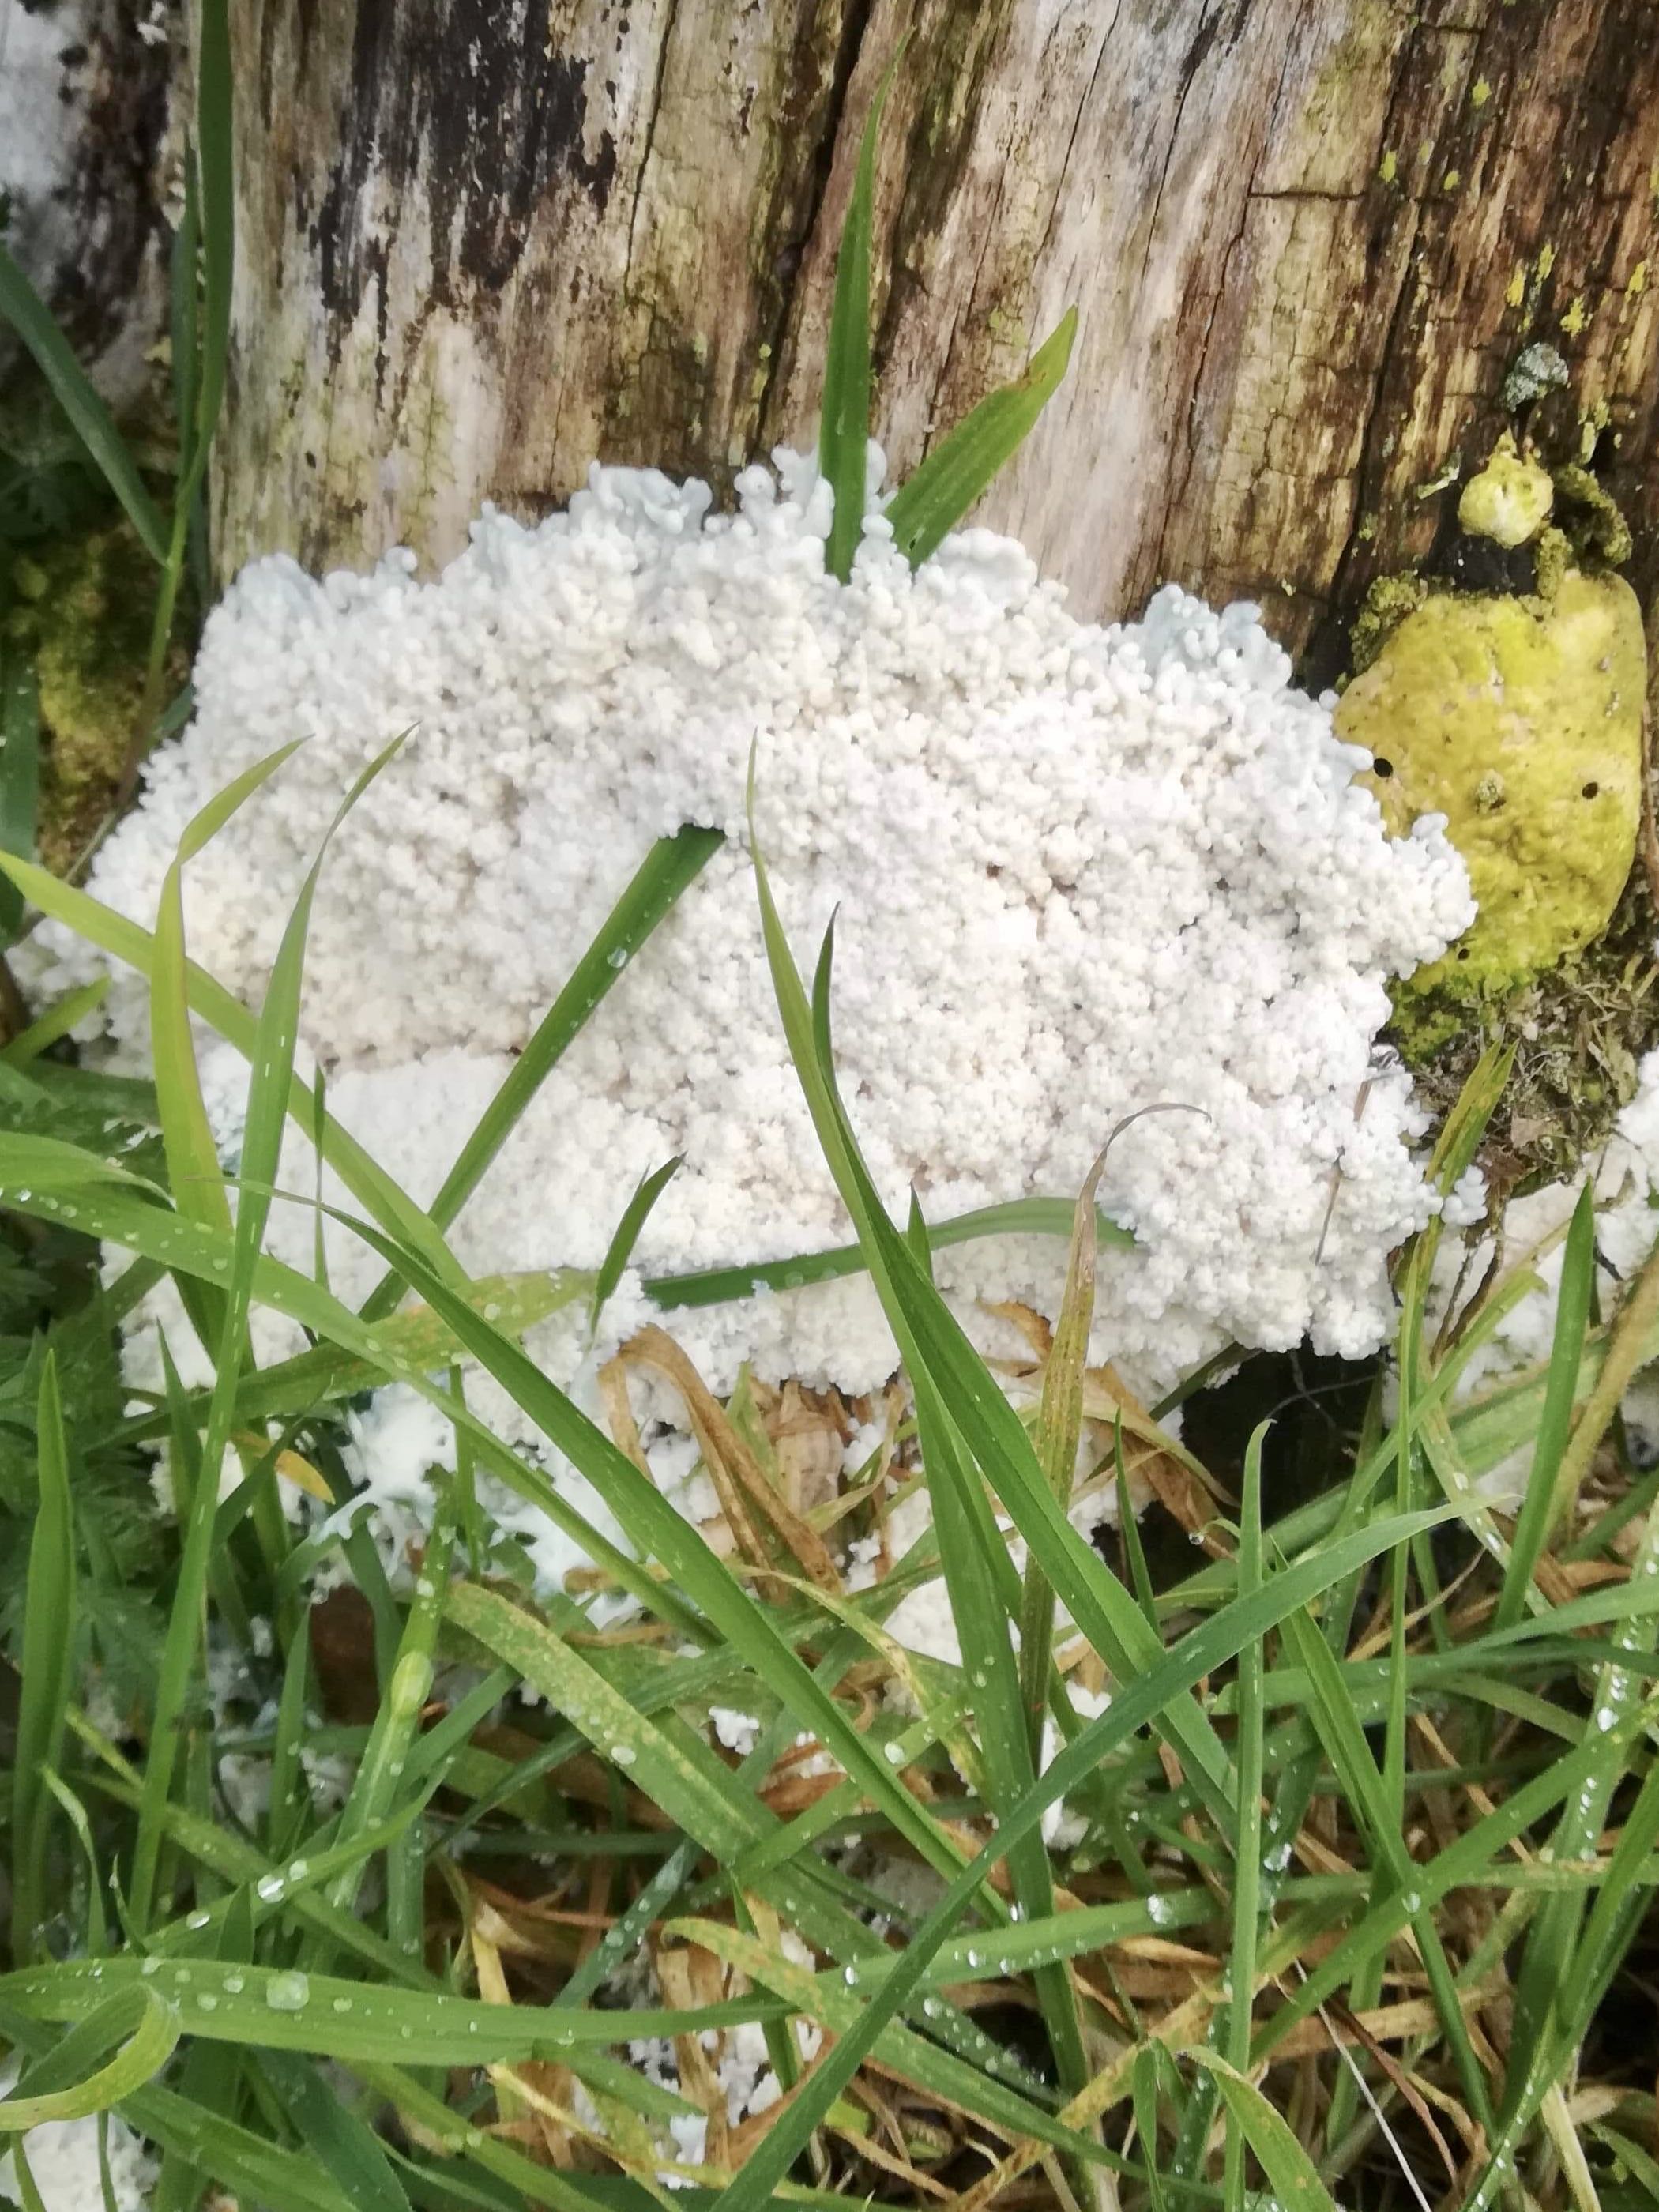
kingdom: Protozoa
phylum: Mycetozoa
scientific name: Mycetozoa
